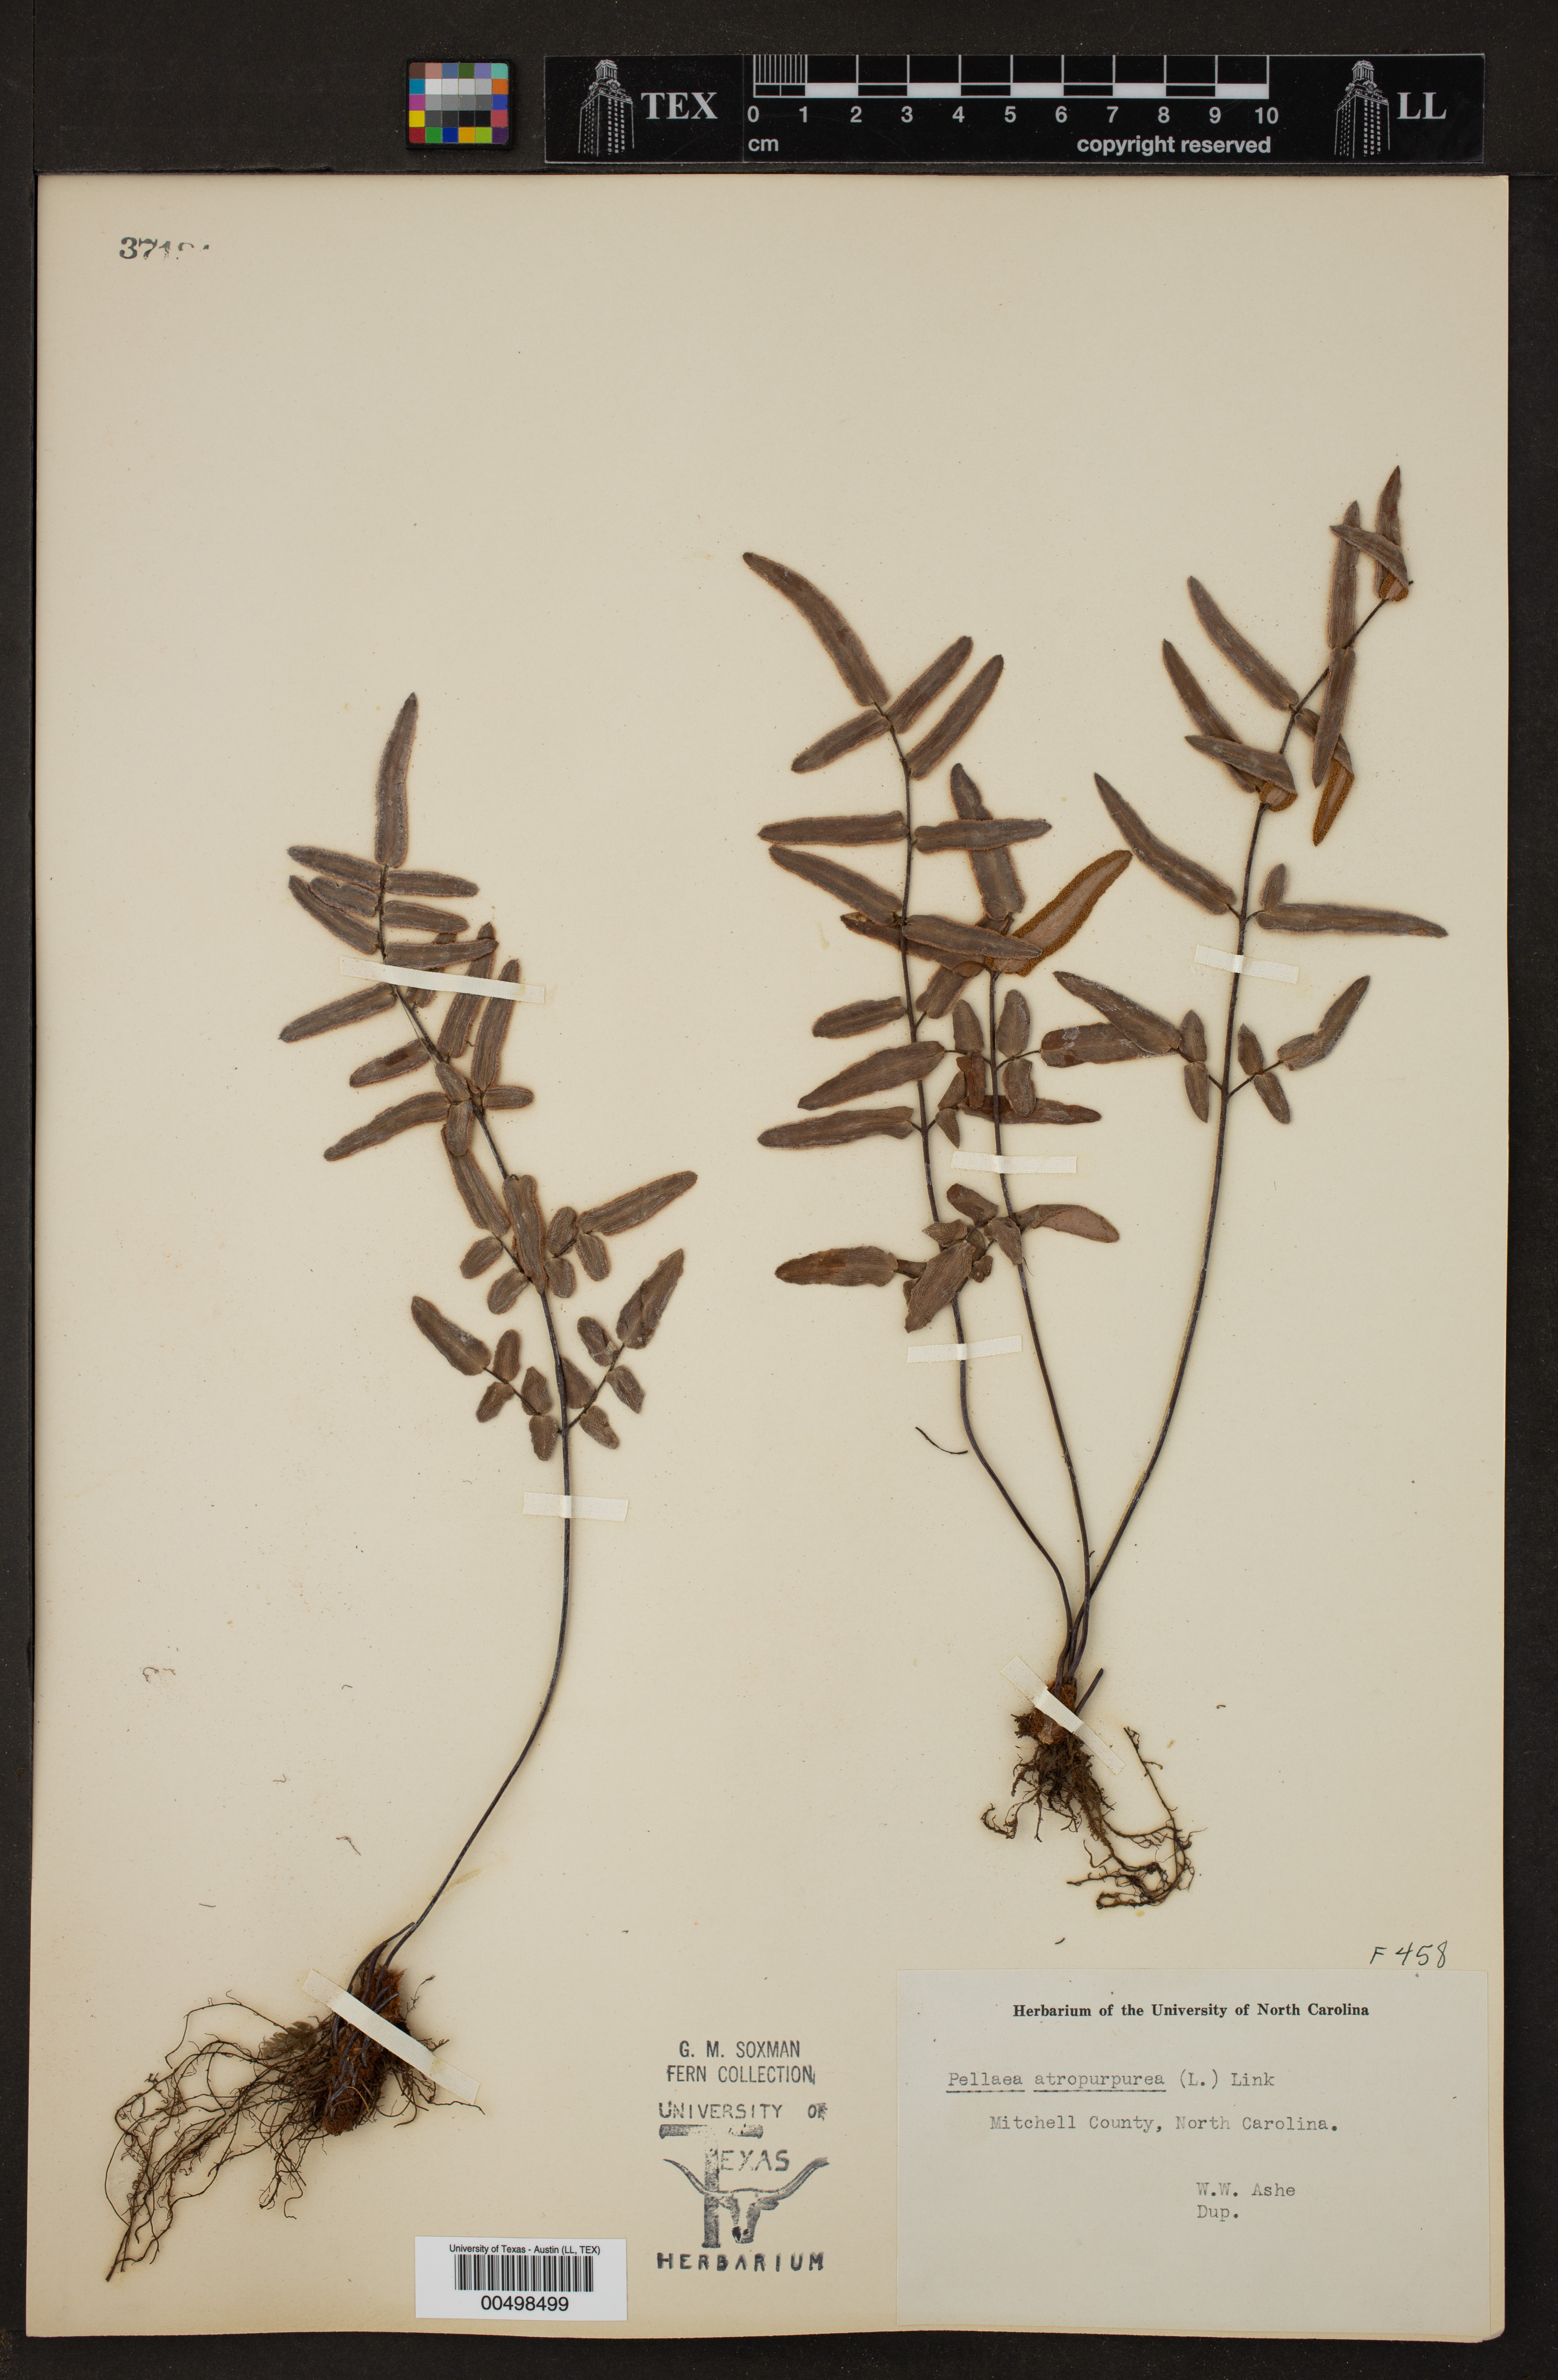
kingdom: Plantae
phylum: Tracheophyta
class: Polypodiopsida
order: Polypodiales
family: Pteridaceae
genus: Pellaea
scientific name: Pellaea atropurpurea
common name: Hairy cliffbrake
